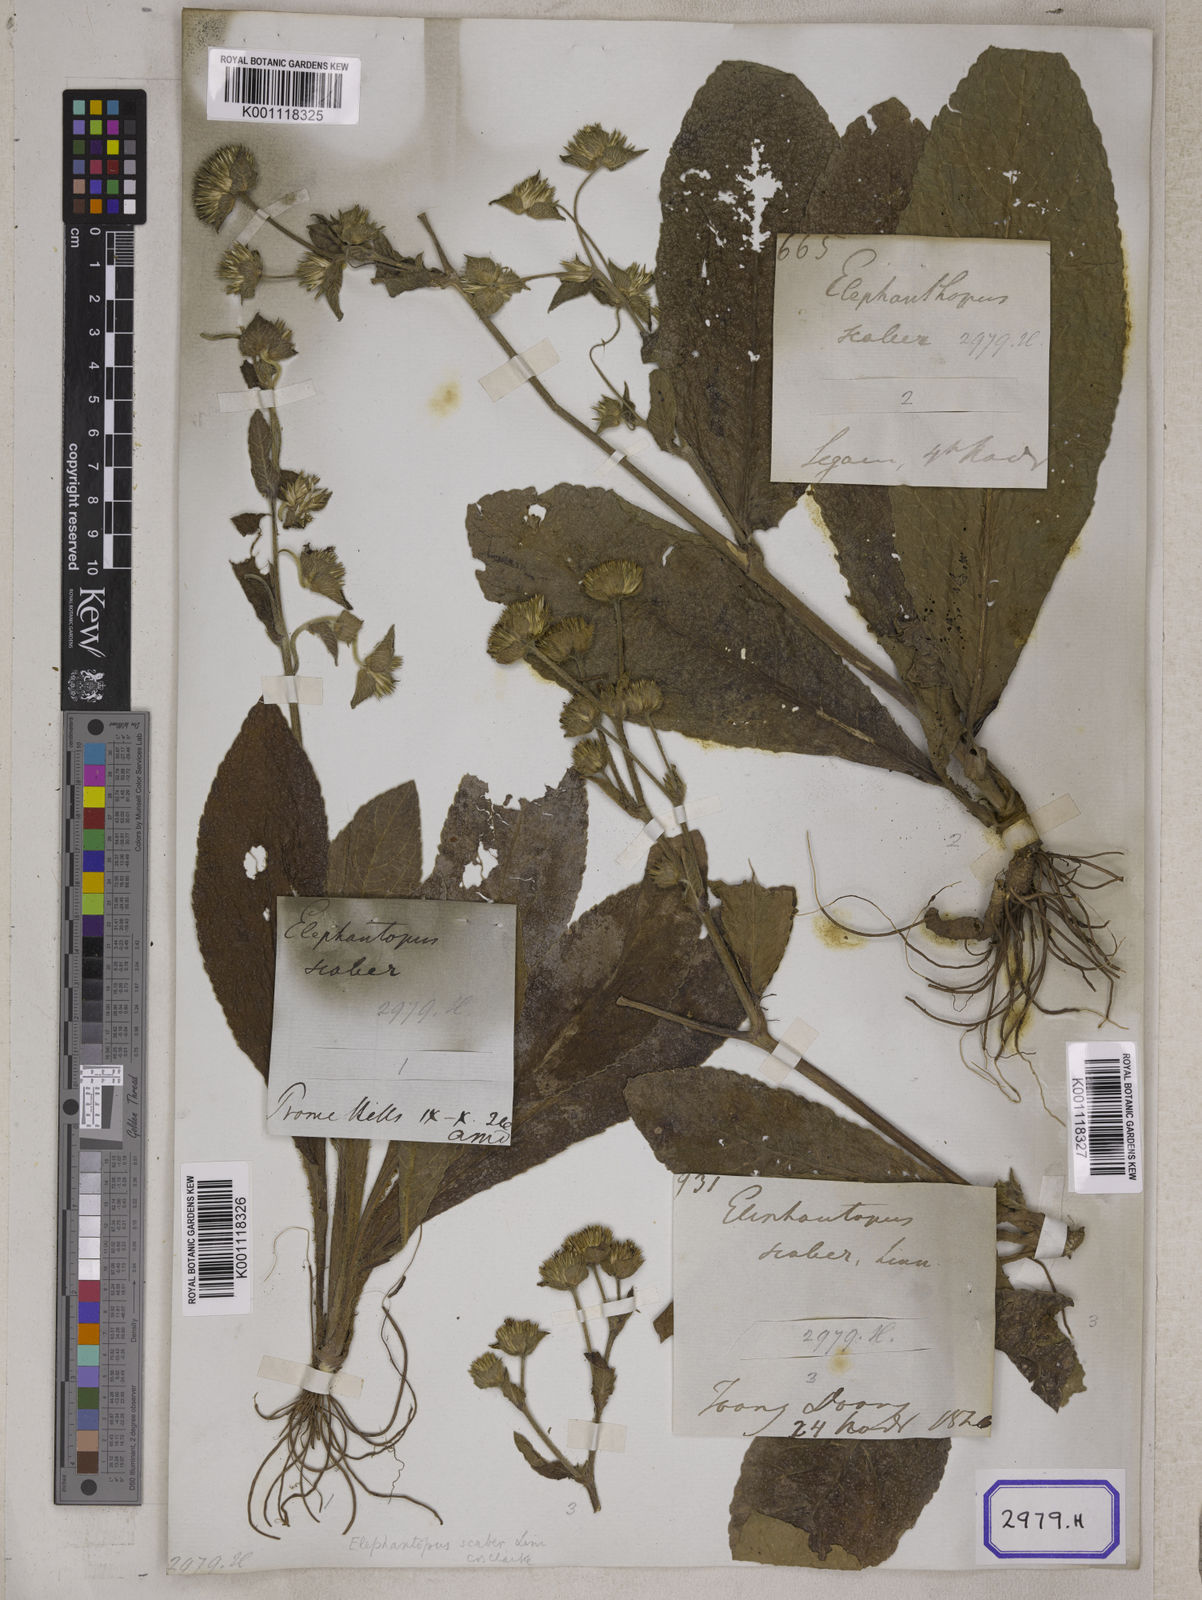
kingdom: Plantae
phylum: Tracheophyta
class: Magnoliopsida
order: Asterales
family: Asteraceae
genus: Elephantopus
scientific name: Elephantopus scaber
